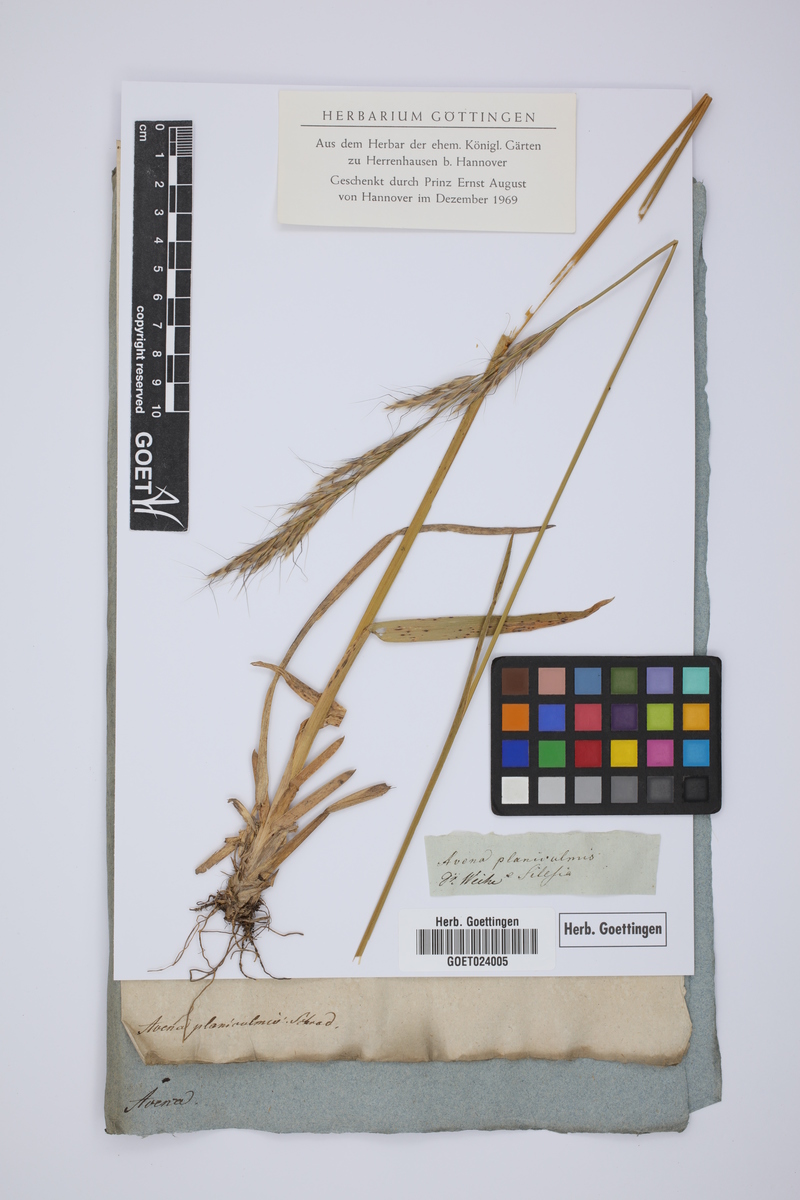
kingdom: Plantae
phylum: Tracheophyta
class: Liliopsida
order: Poales
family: Poaceae
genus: Helictochloa
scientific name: Helictochloa planiculmis
